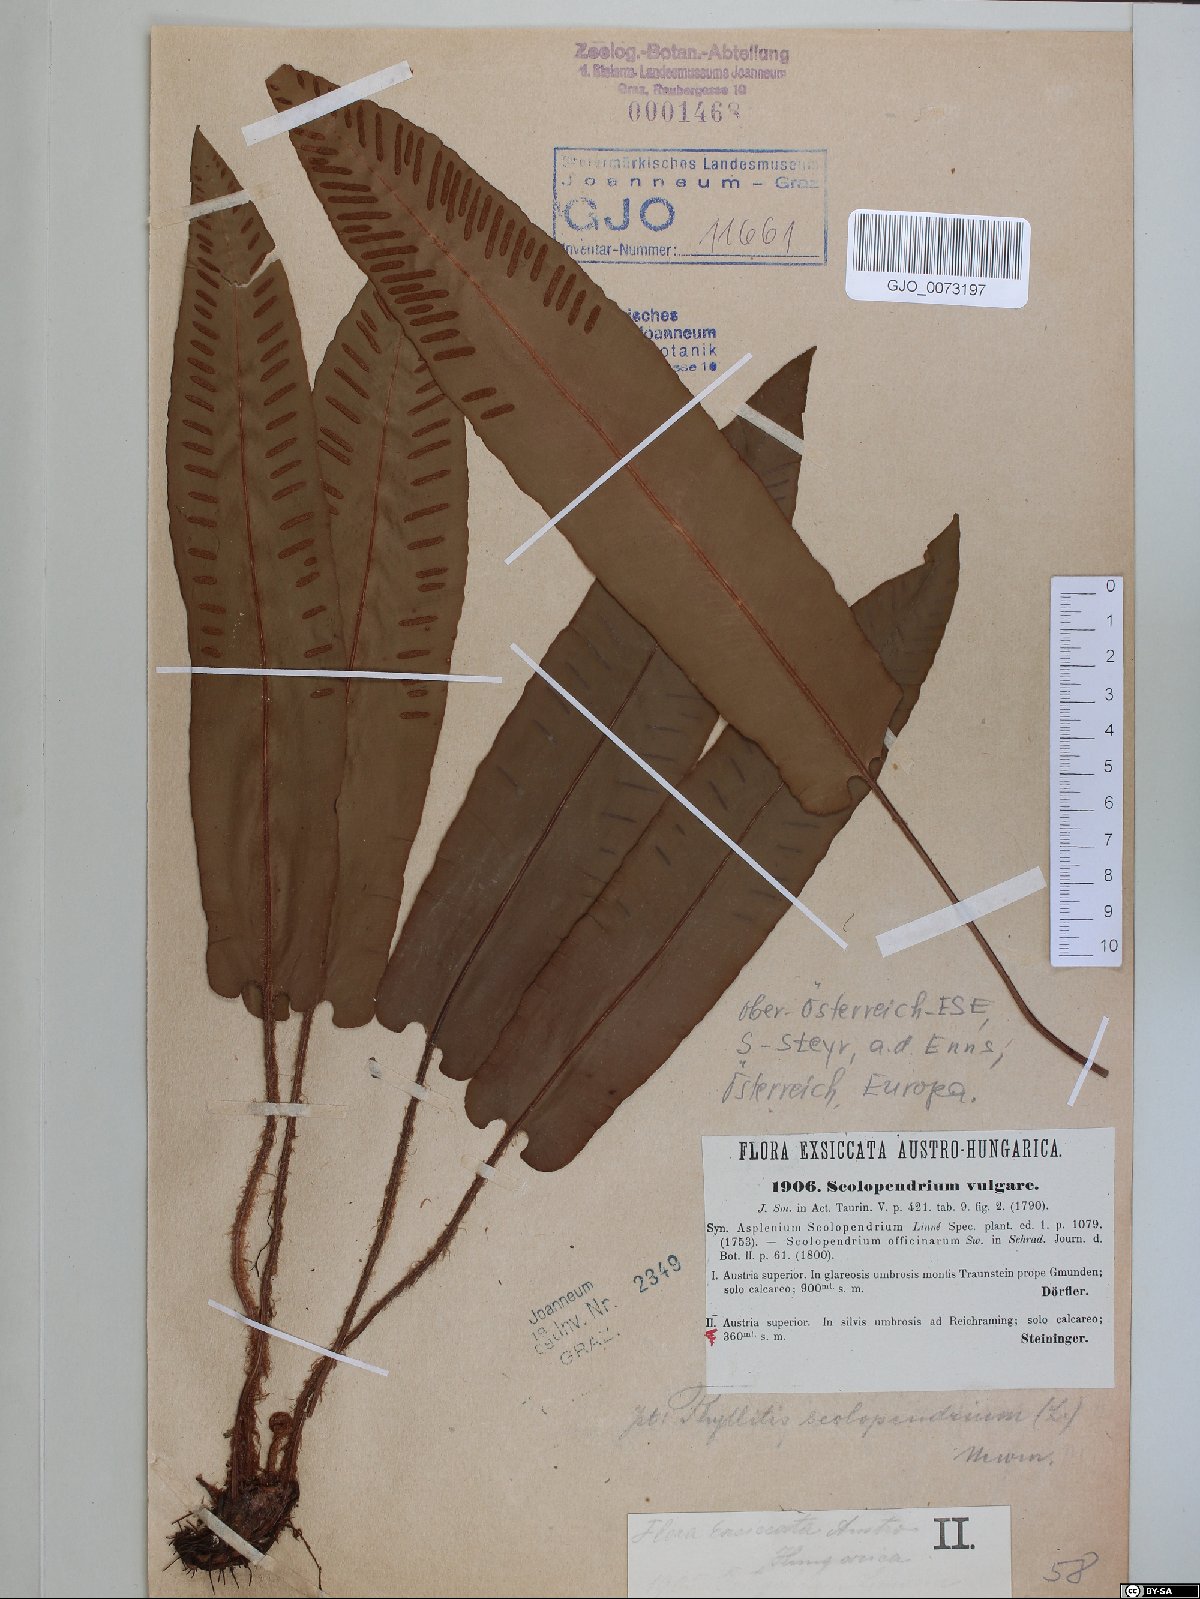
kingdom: Plantae
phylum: Tracheophyta
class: Polypodiopsida
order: Polypodiales
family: Aspleniaceae
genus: Asplenium
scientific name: Asplenium scolopendrium
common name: Hart's-tongue fern
